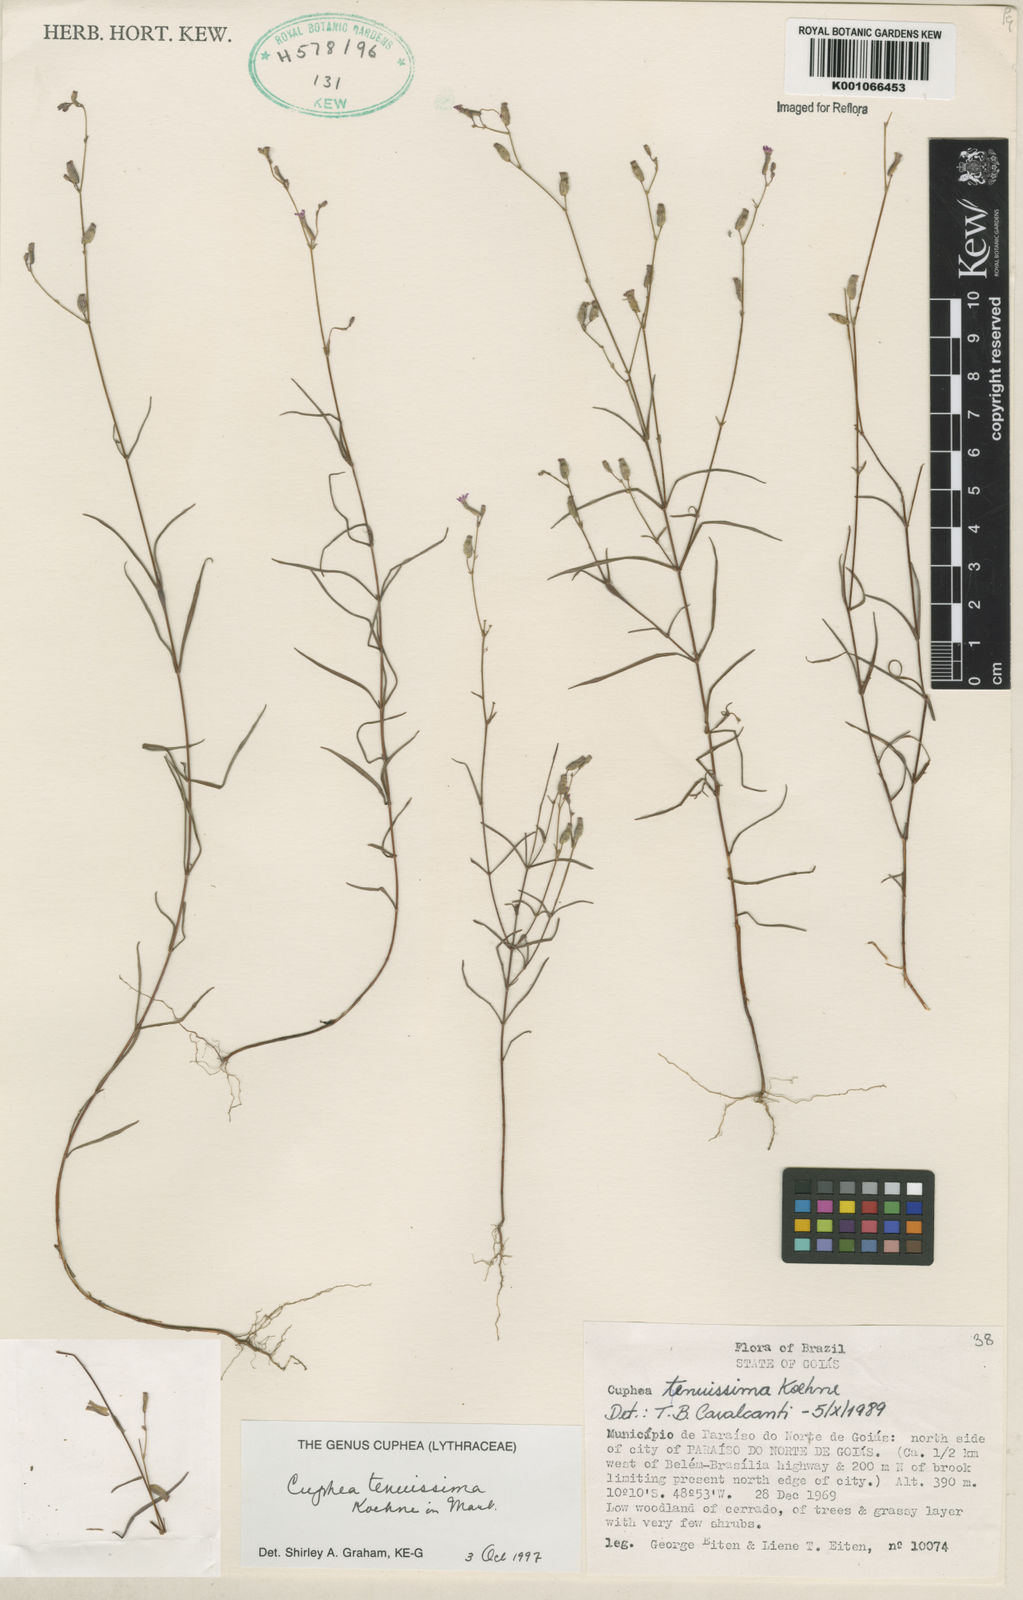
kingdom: Plantae
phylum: Tracheophyta
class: Magnoliopsida
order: Myrtales
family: Lythraceae
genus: Cuphea
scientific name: Cuphea tenuissima
